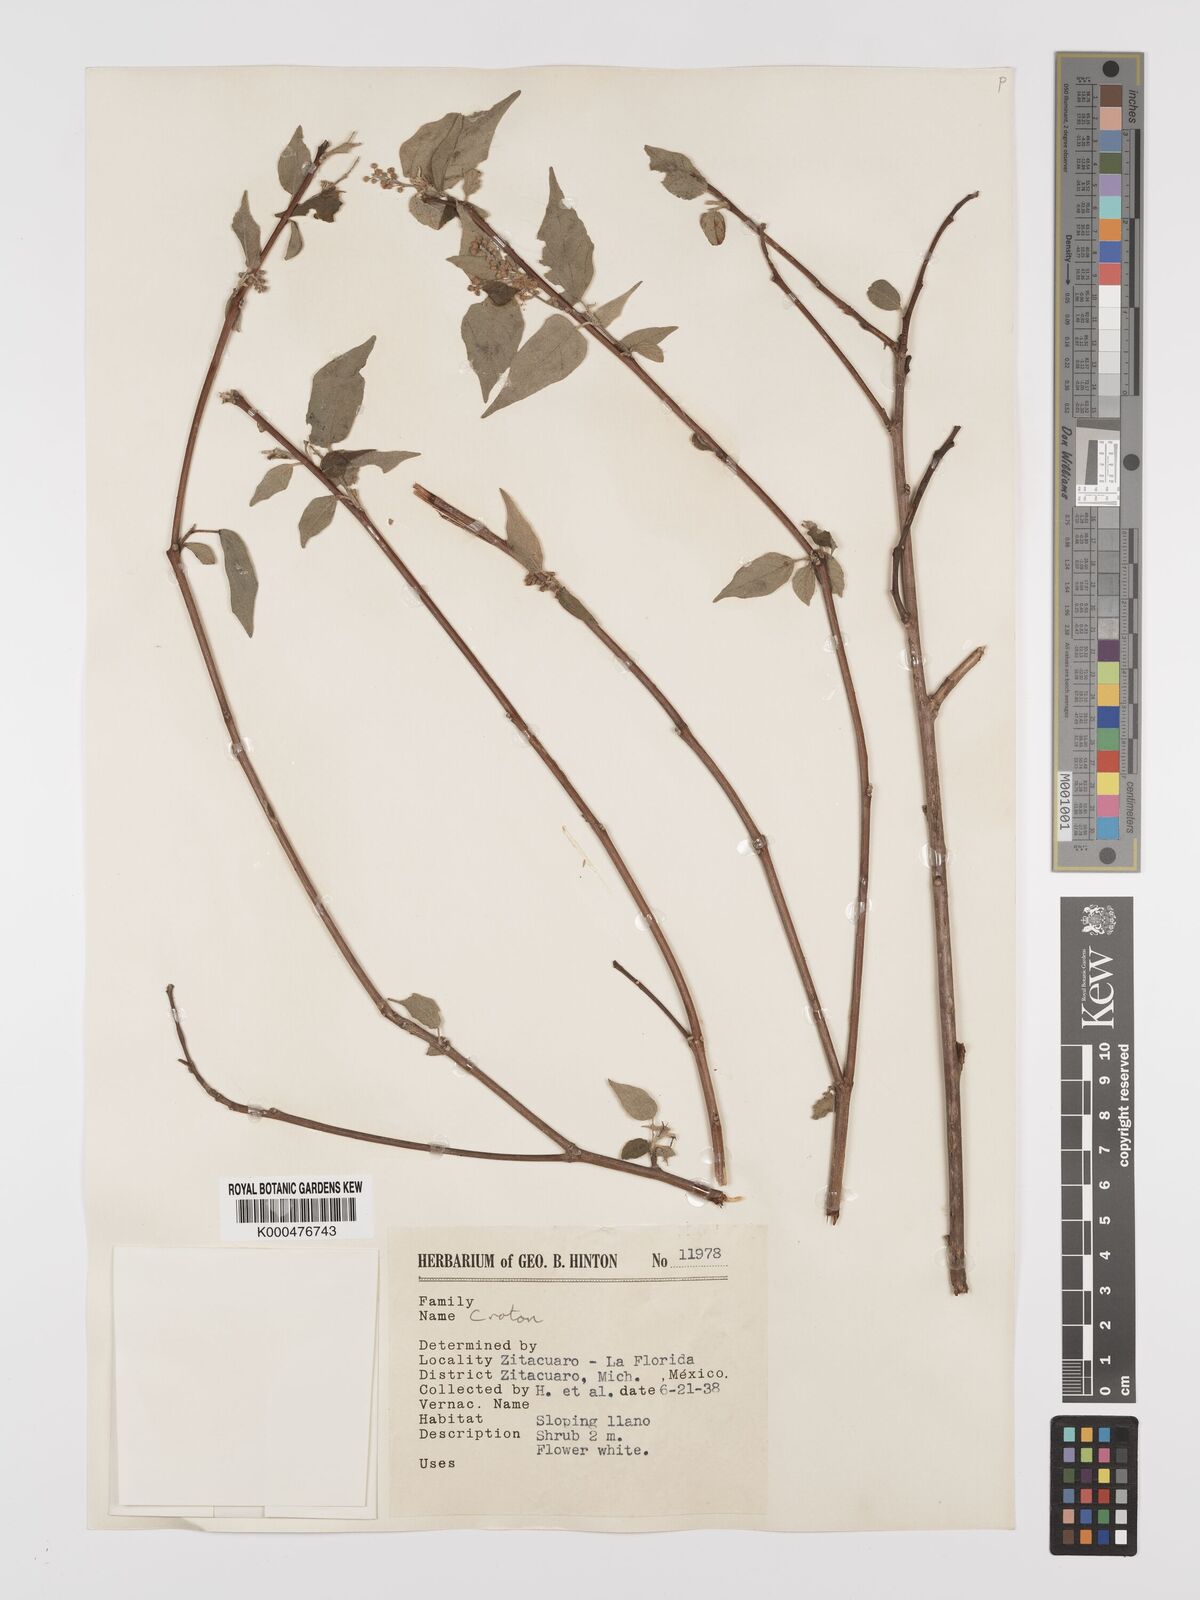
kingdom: Plantae
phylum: Tracheophyta
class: Magnoliopsida
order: Malpighiales
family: Euphorbiaceae
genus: Croton
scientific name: Croton
